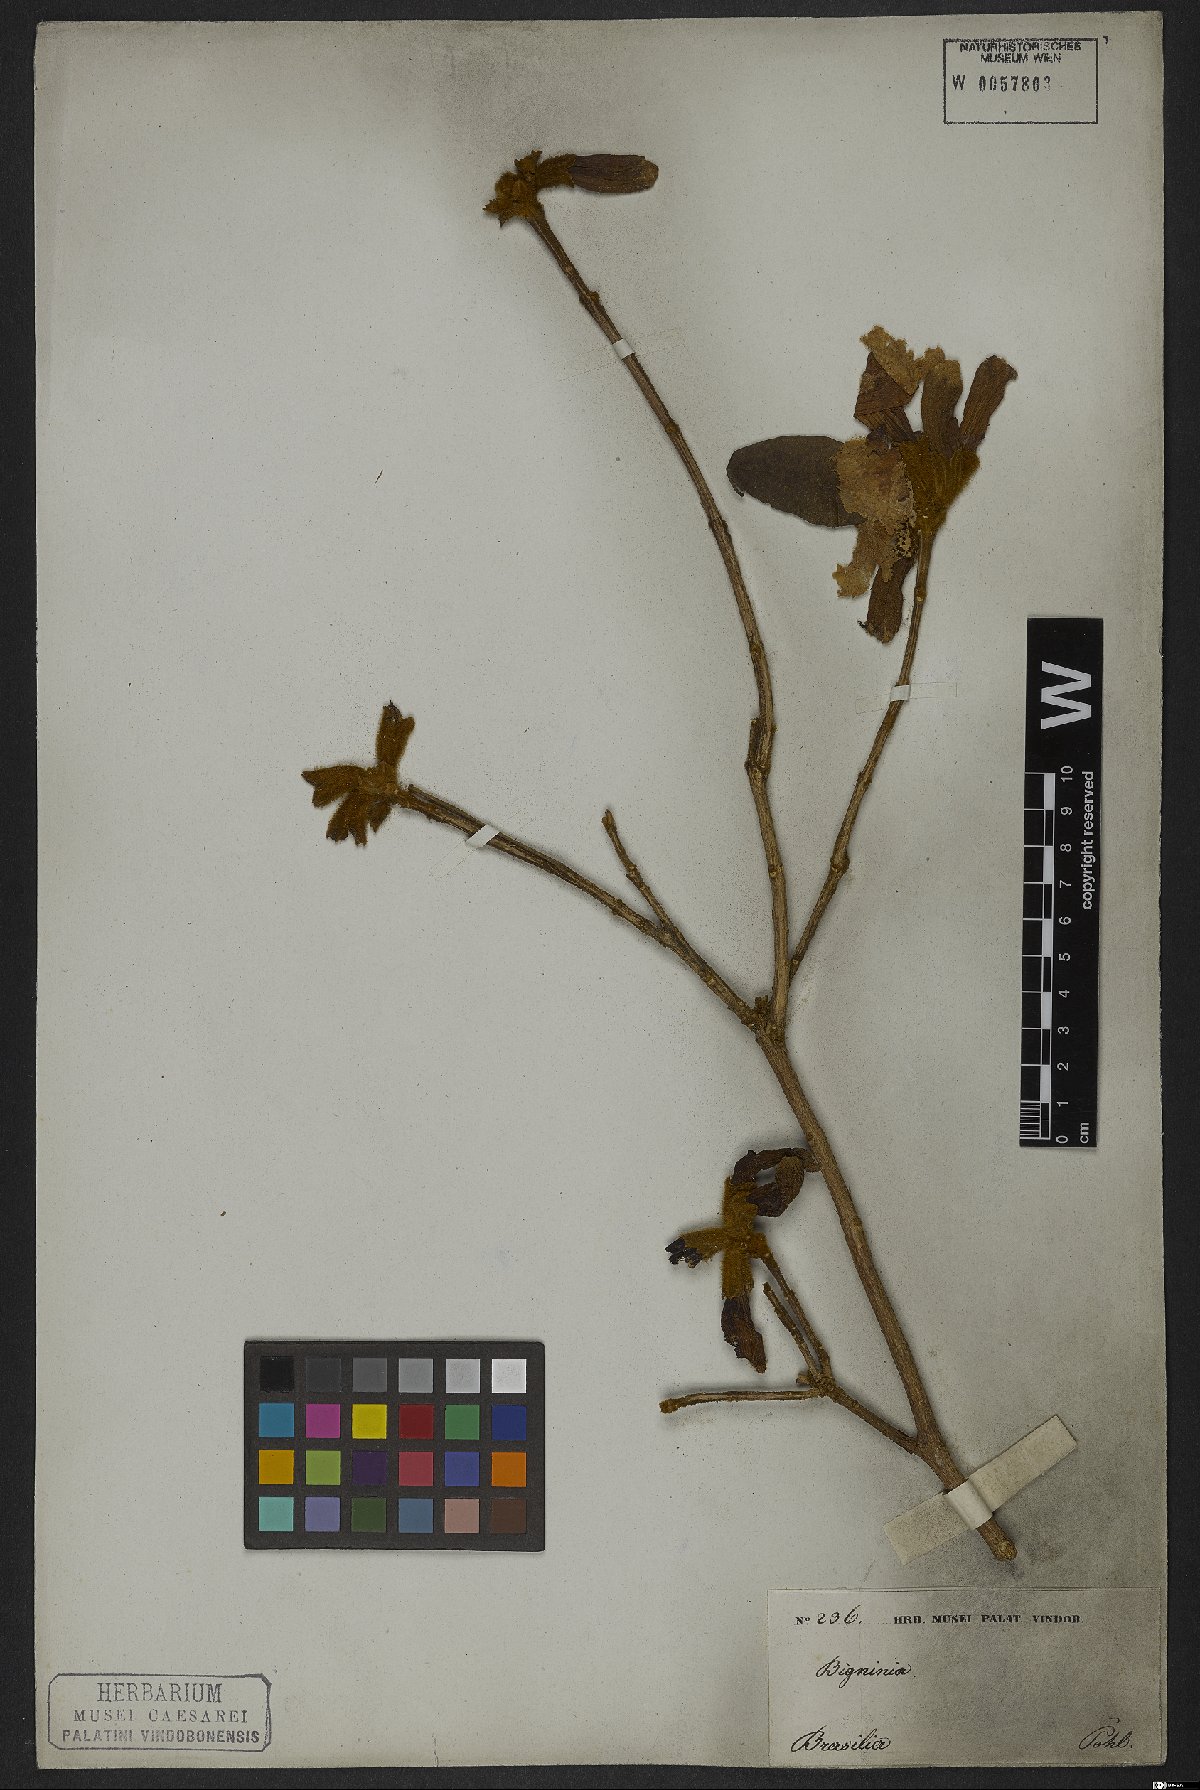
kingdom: Plantae
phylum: Tracheophyta
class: Magnoliopsida
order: Lamiales
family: Bignoniaceae
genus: Handroanthus
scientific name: Handroanthus chrysotrichus
